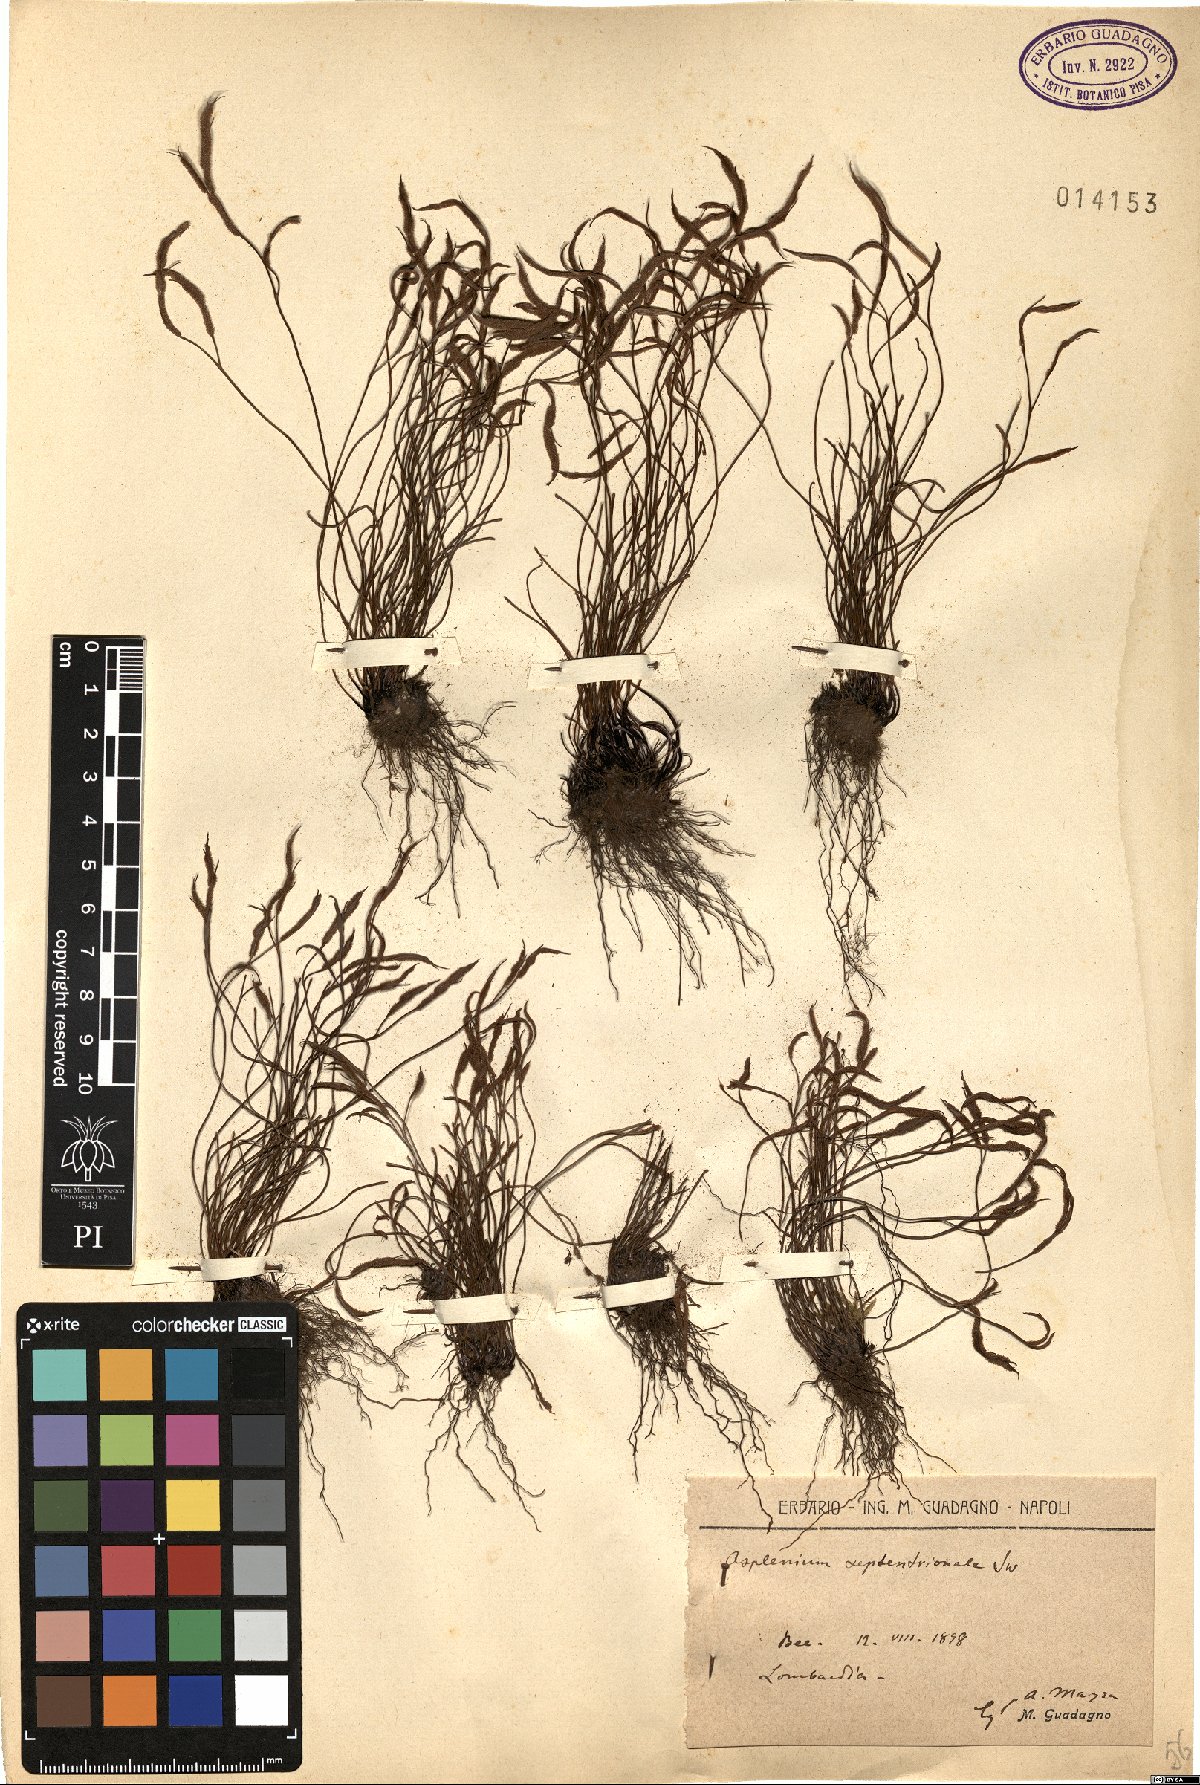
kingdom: Plantae
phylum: Tracheophyta
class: Polypodiopsida
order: Polypodiales
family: Aspleniaceae
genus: Asplenium
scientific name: Asplenium septentrionale
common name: Forked spleenwort
